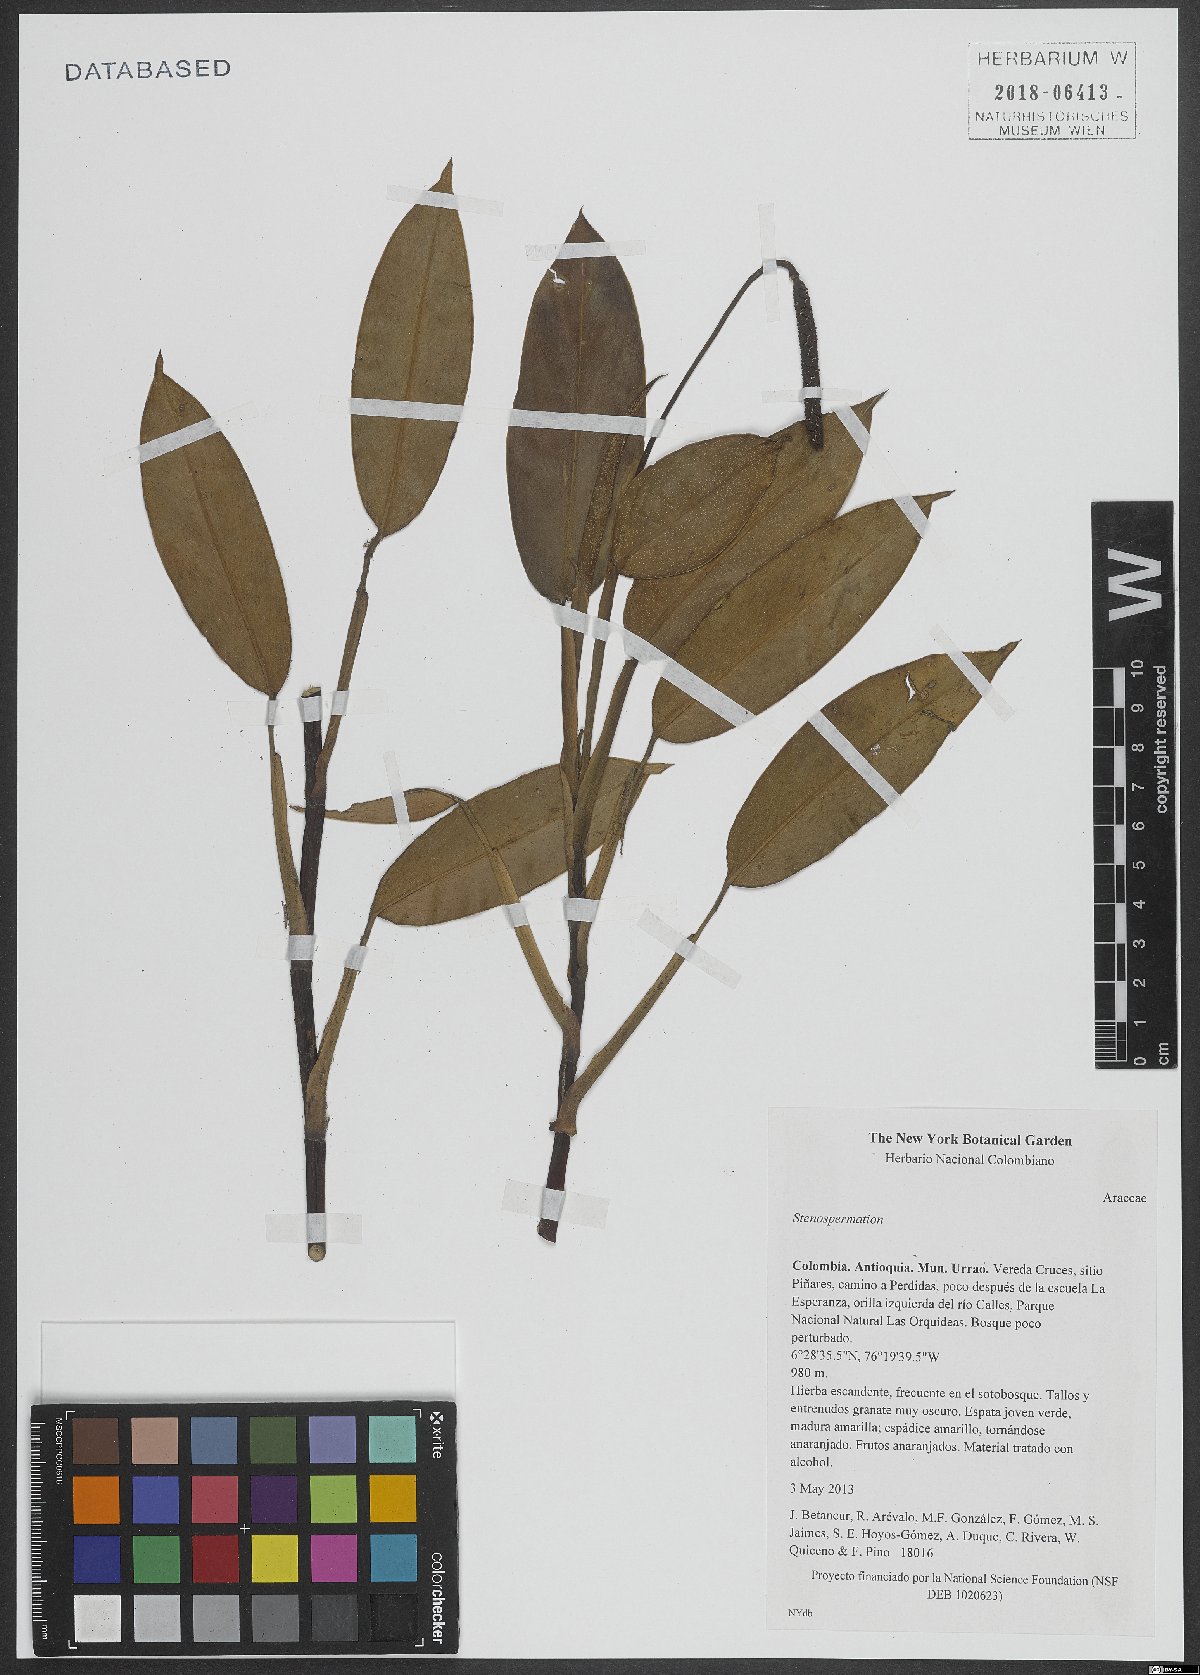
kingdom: Plantae
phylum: Tracheophyta
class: Liliopsida
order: Alismatales
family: Araceae
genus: Stenospermation
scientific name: Stenospermation
